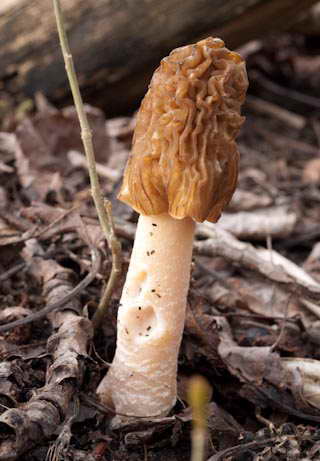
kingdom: Fungi
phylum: Ascomycota
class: Pezizomycetes
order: Pezizales
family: Morchellaceae
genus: Verpa
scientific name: Verpa bohemica
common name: rynket klokkemorkel
